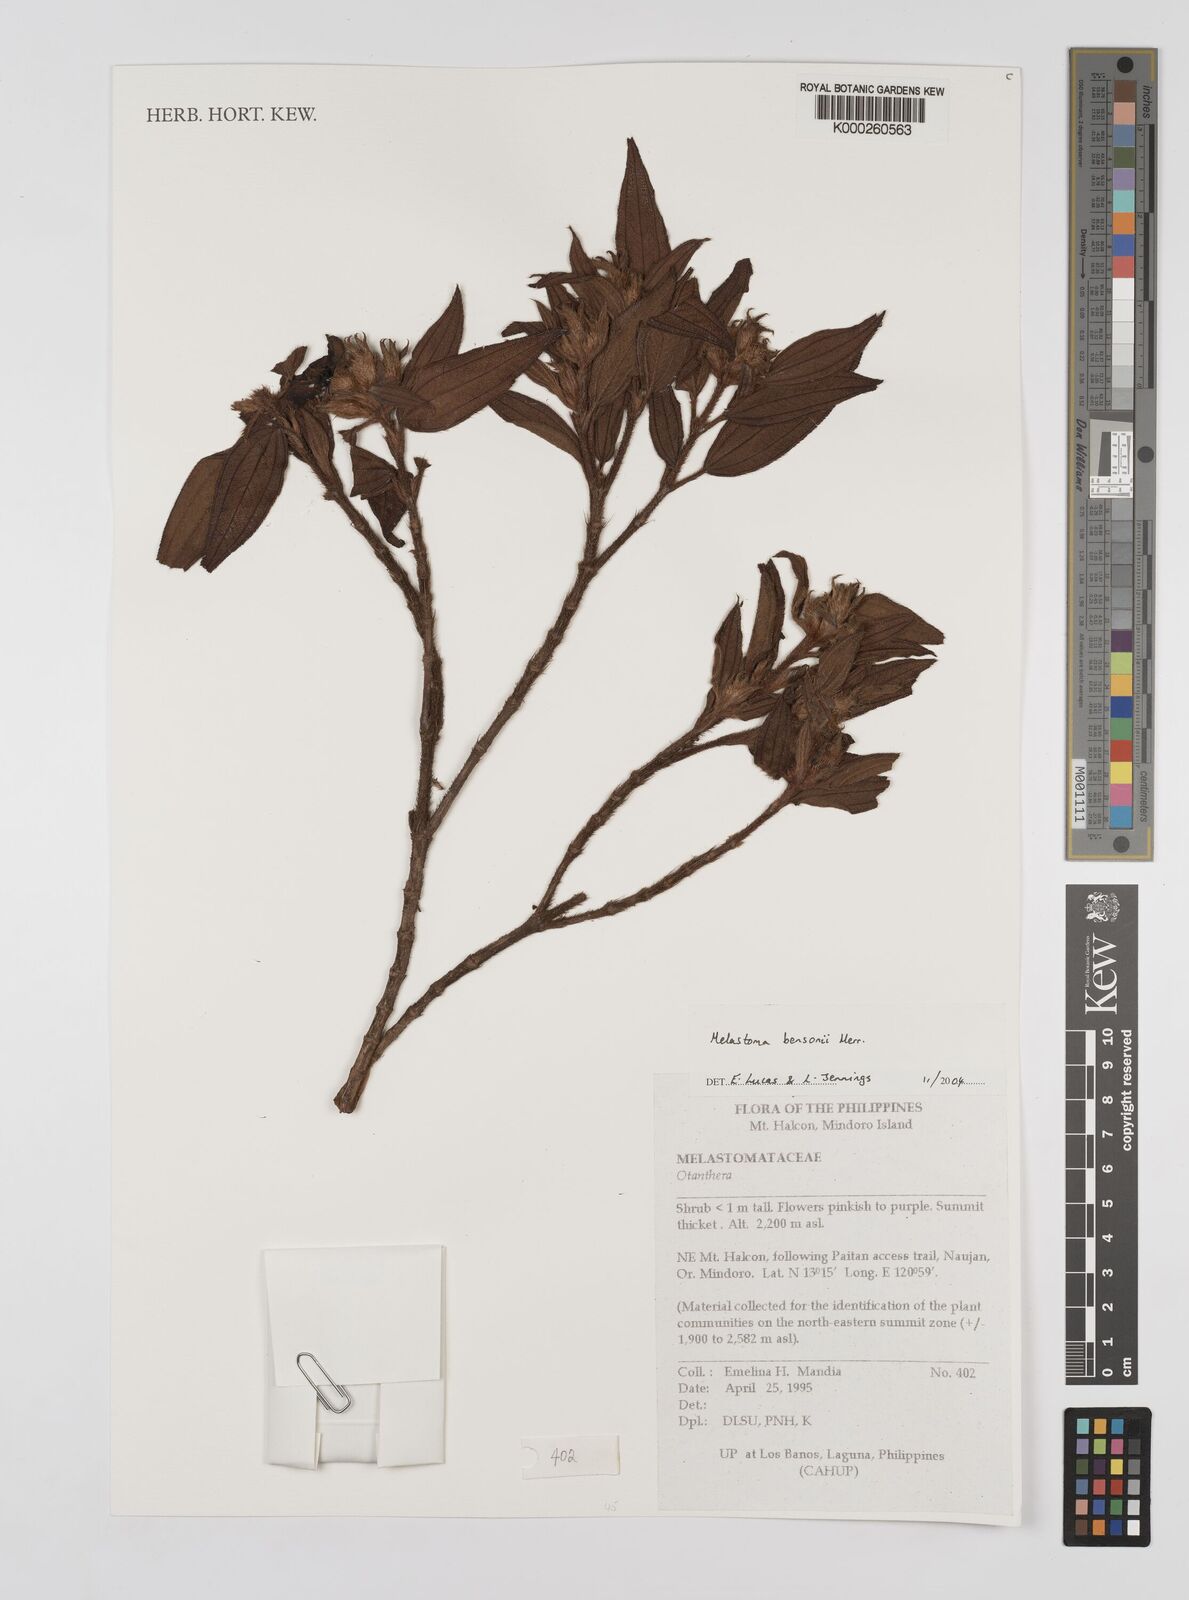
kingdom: Plantae
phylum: Tracheophyta
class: Magnoliopsida
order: Myrtales
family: Melastomataceae
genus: Melastoma
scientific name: Melastoma bensonii
